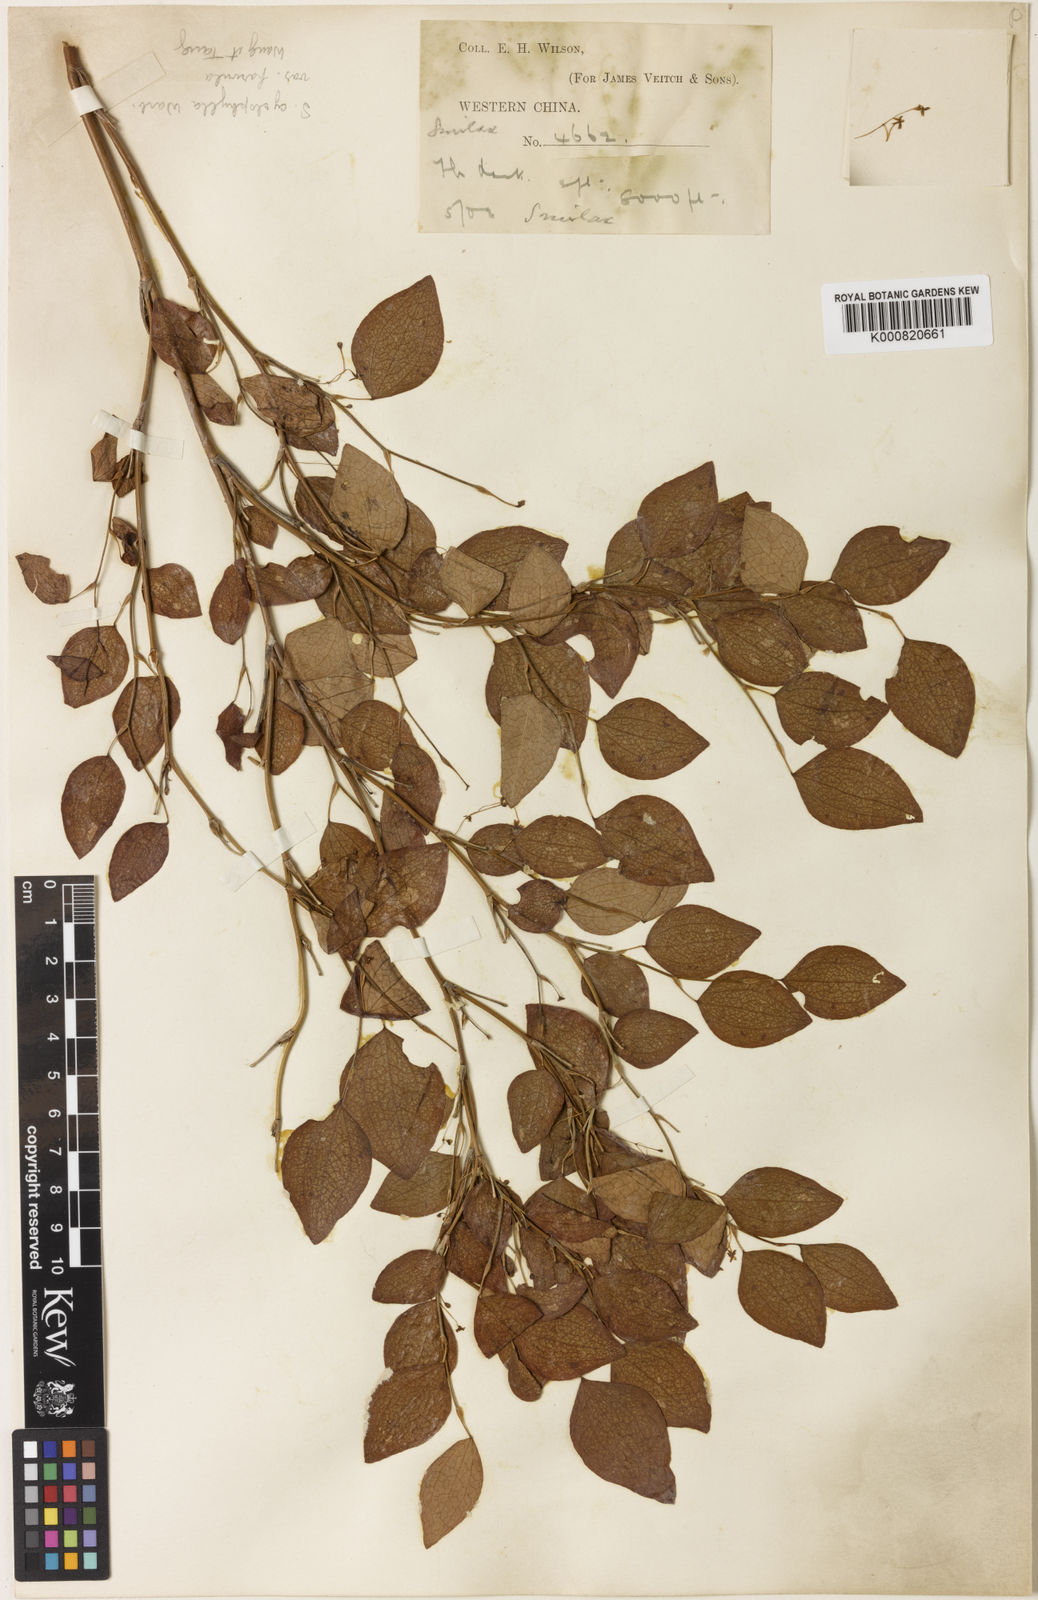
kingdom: Plantae
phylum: Tracheophyta
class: Liliopsida
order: Liliales
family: Smilacaceae
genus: Smilax
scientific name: Smilax neocyclophylla
